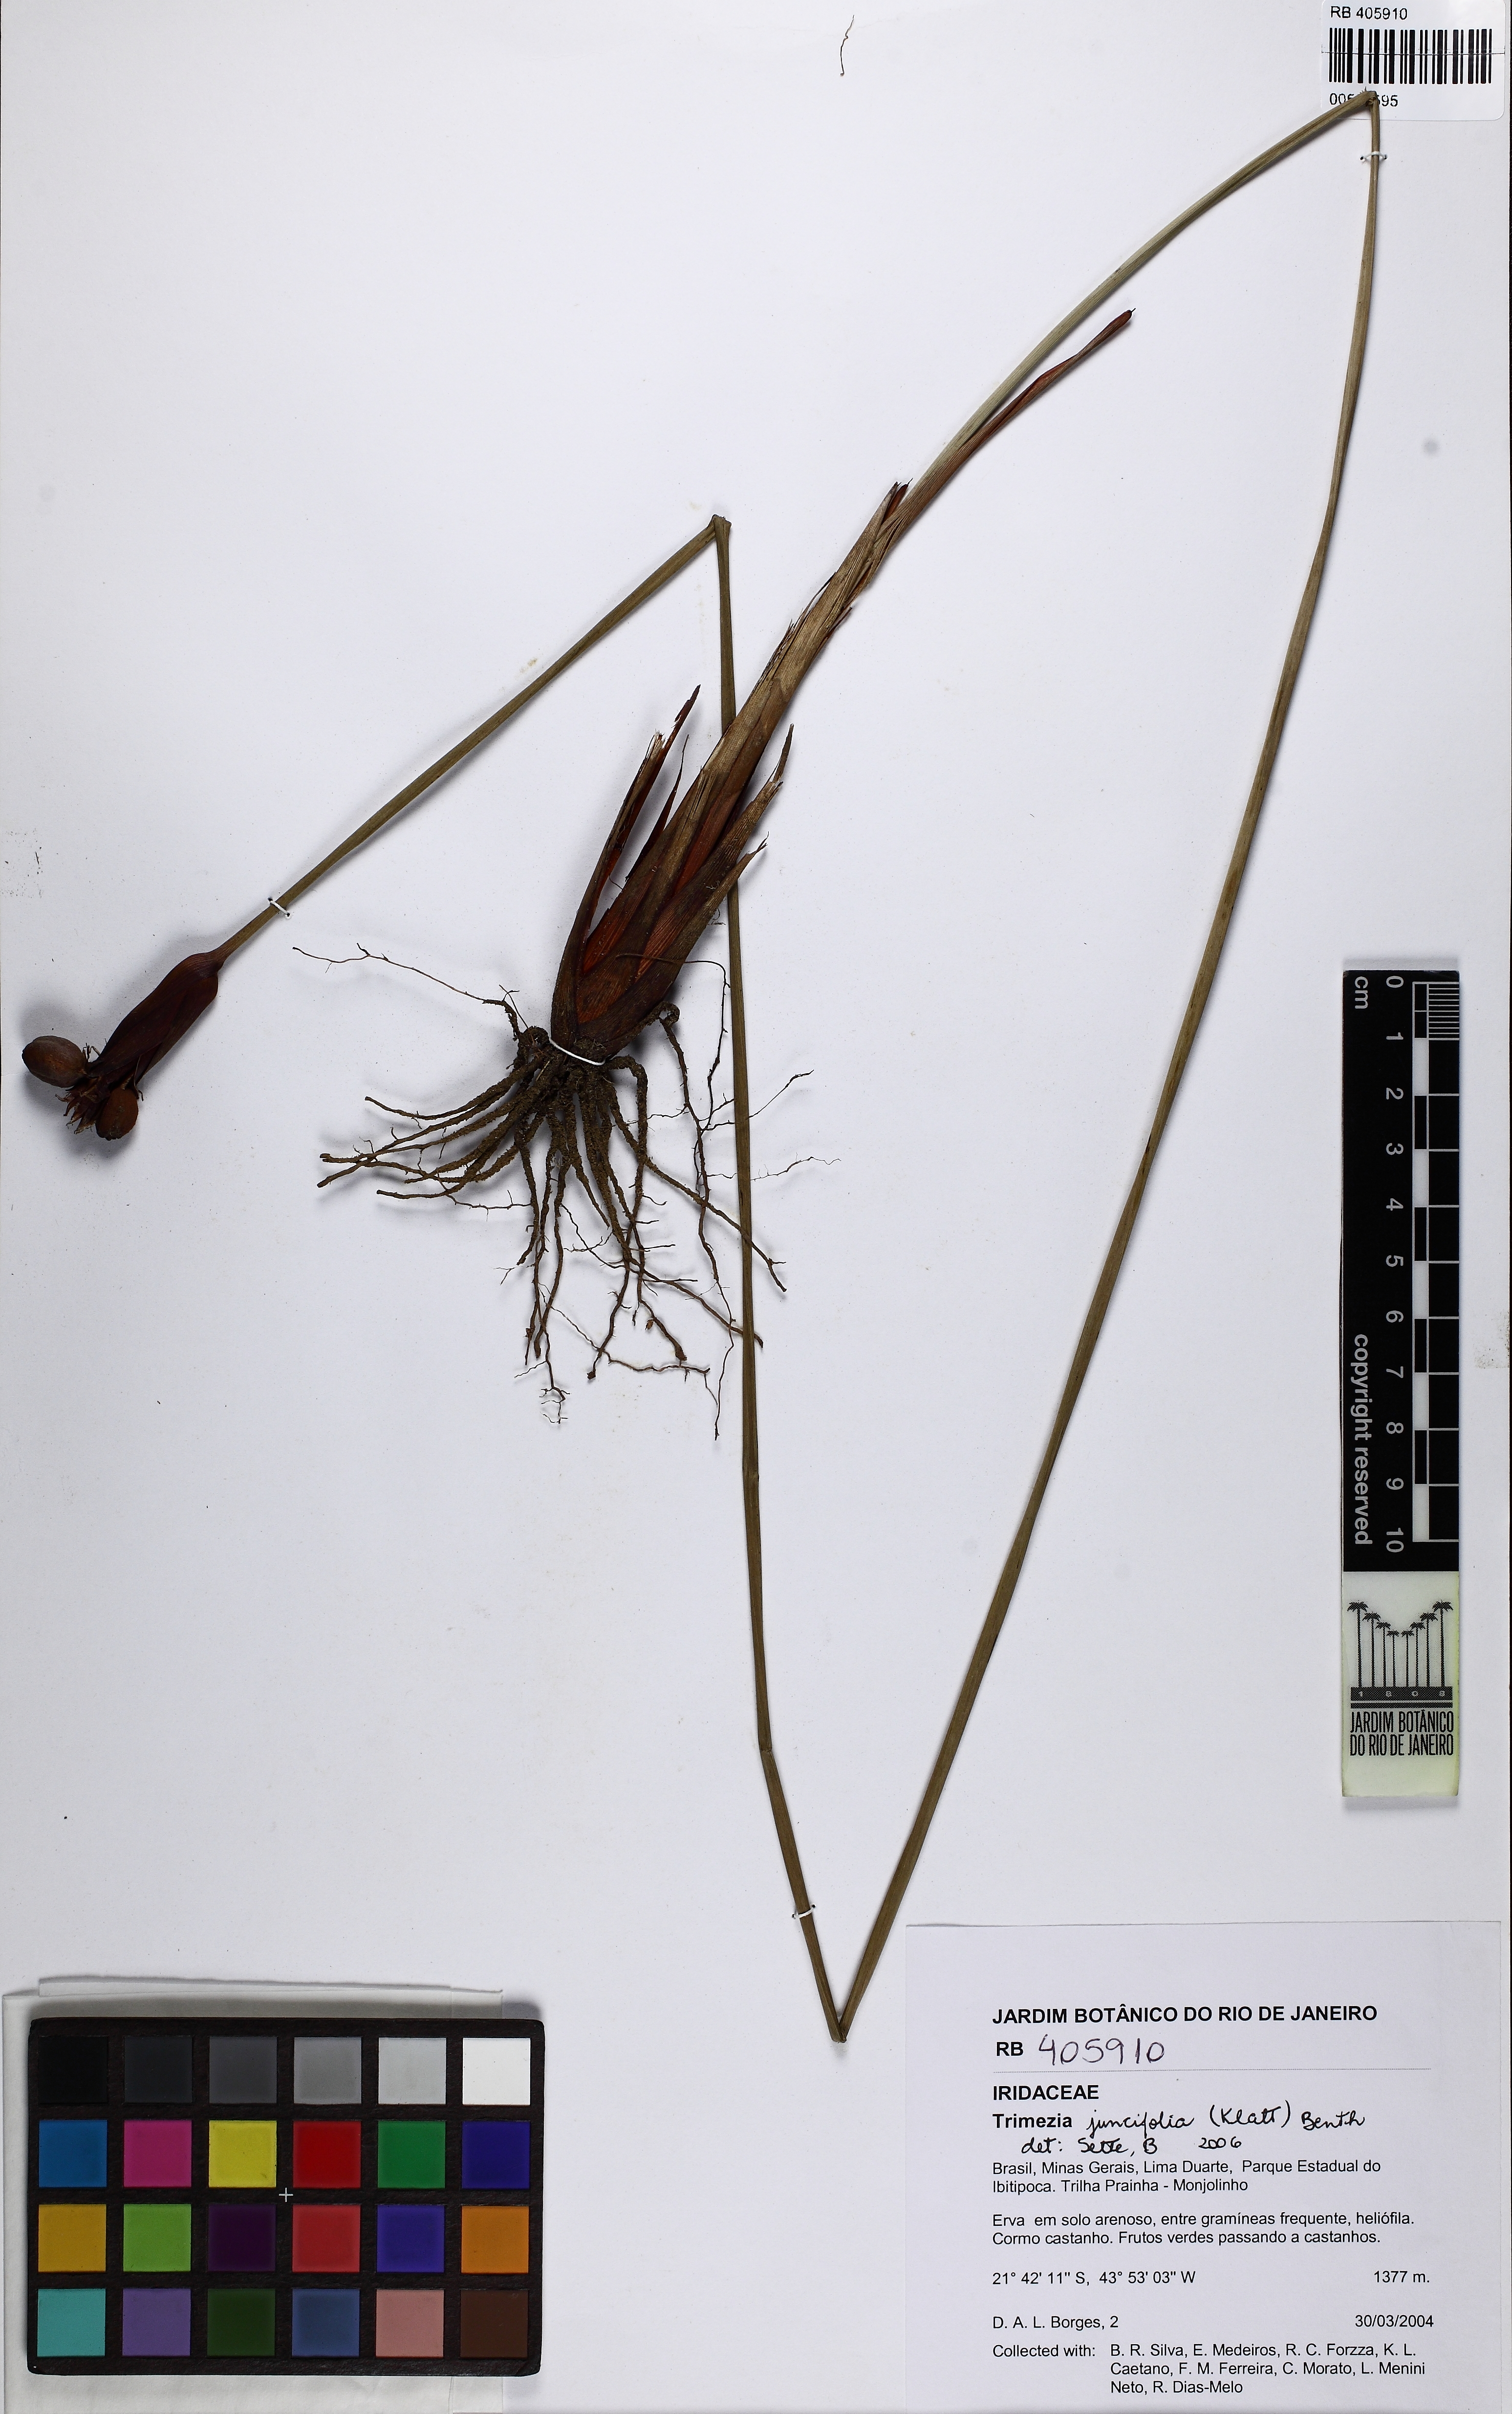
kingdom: Plantae
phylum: Tracheophyta
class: Liliopsida
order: Asparagales
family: Iridaceae
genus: Trimezia
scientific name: Trimezia juncifolia
